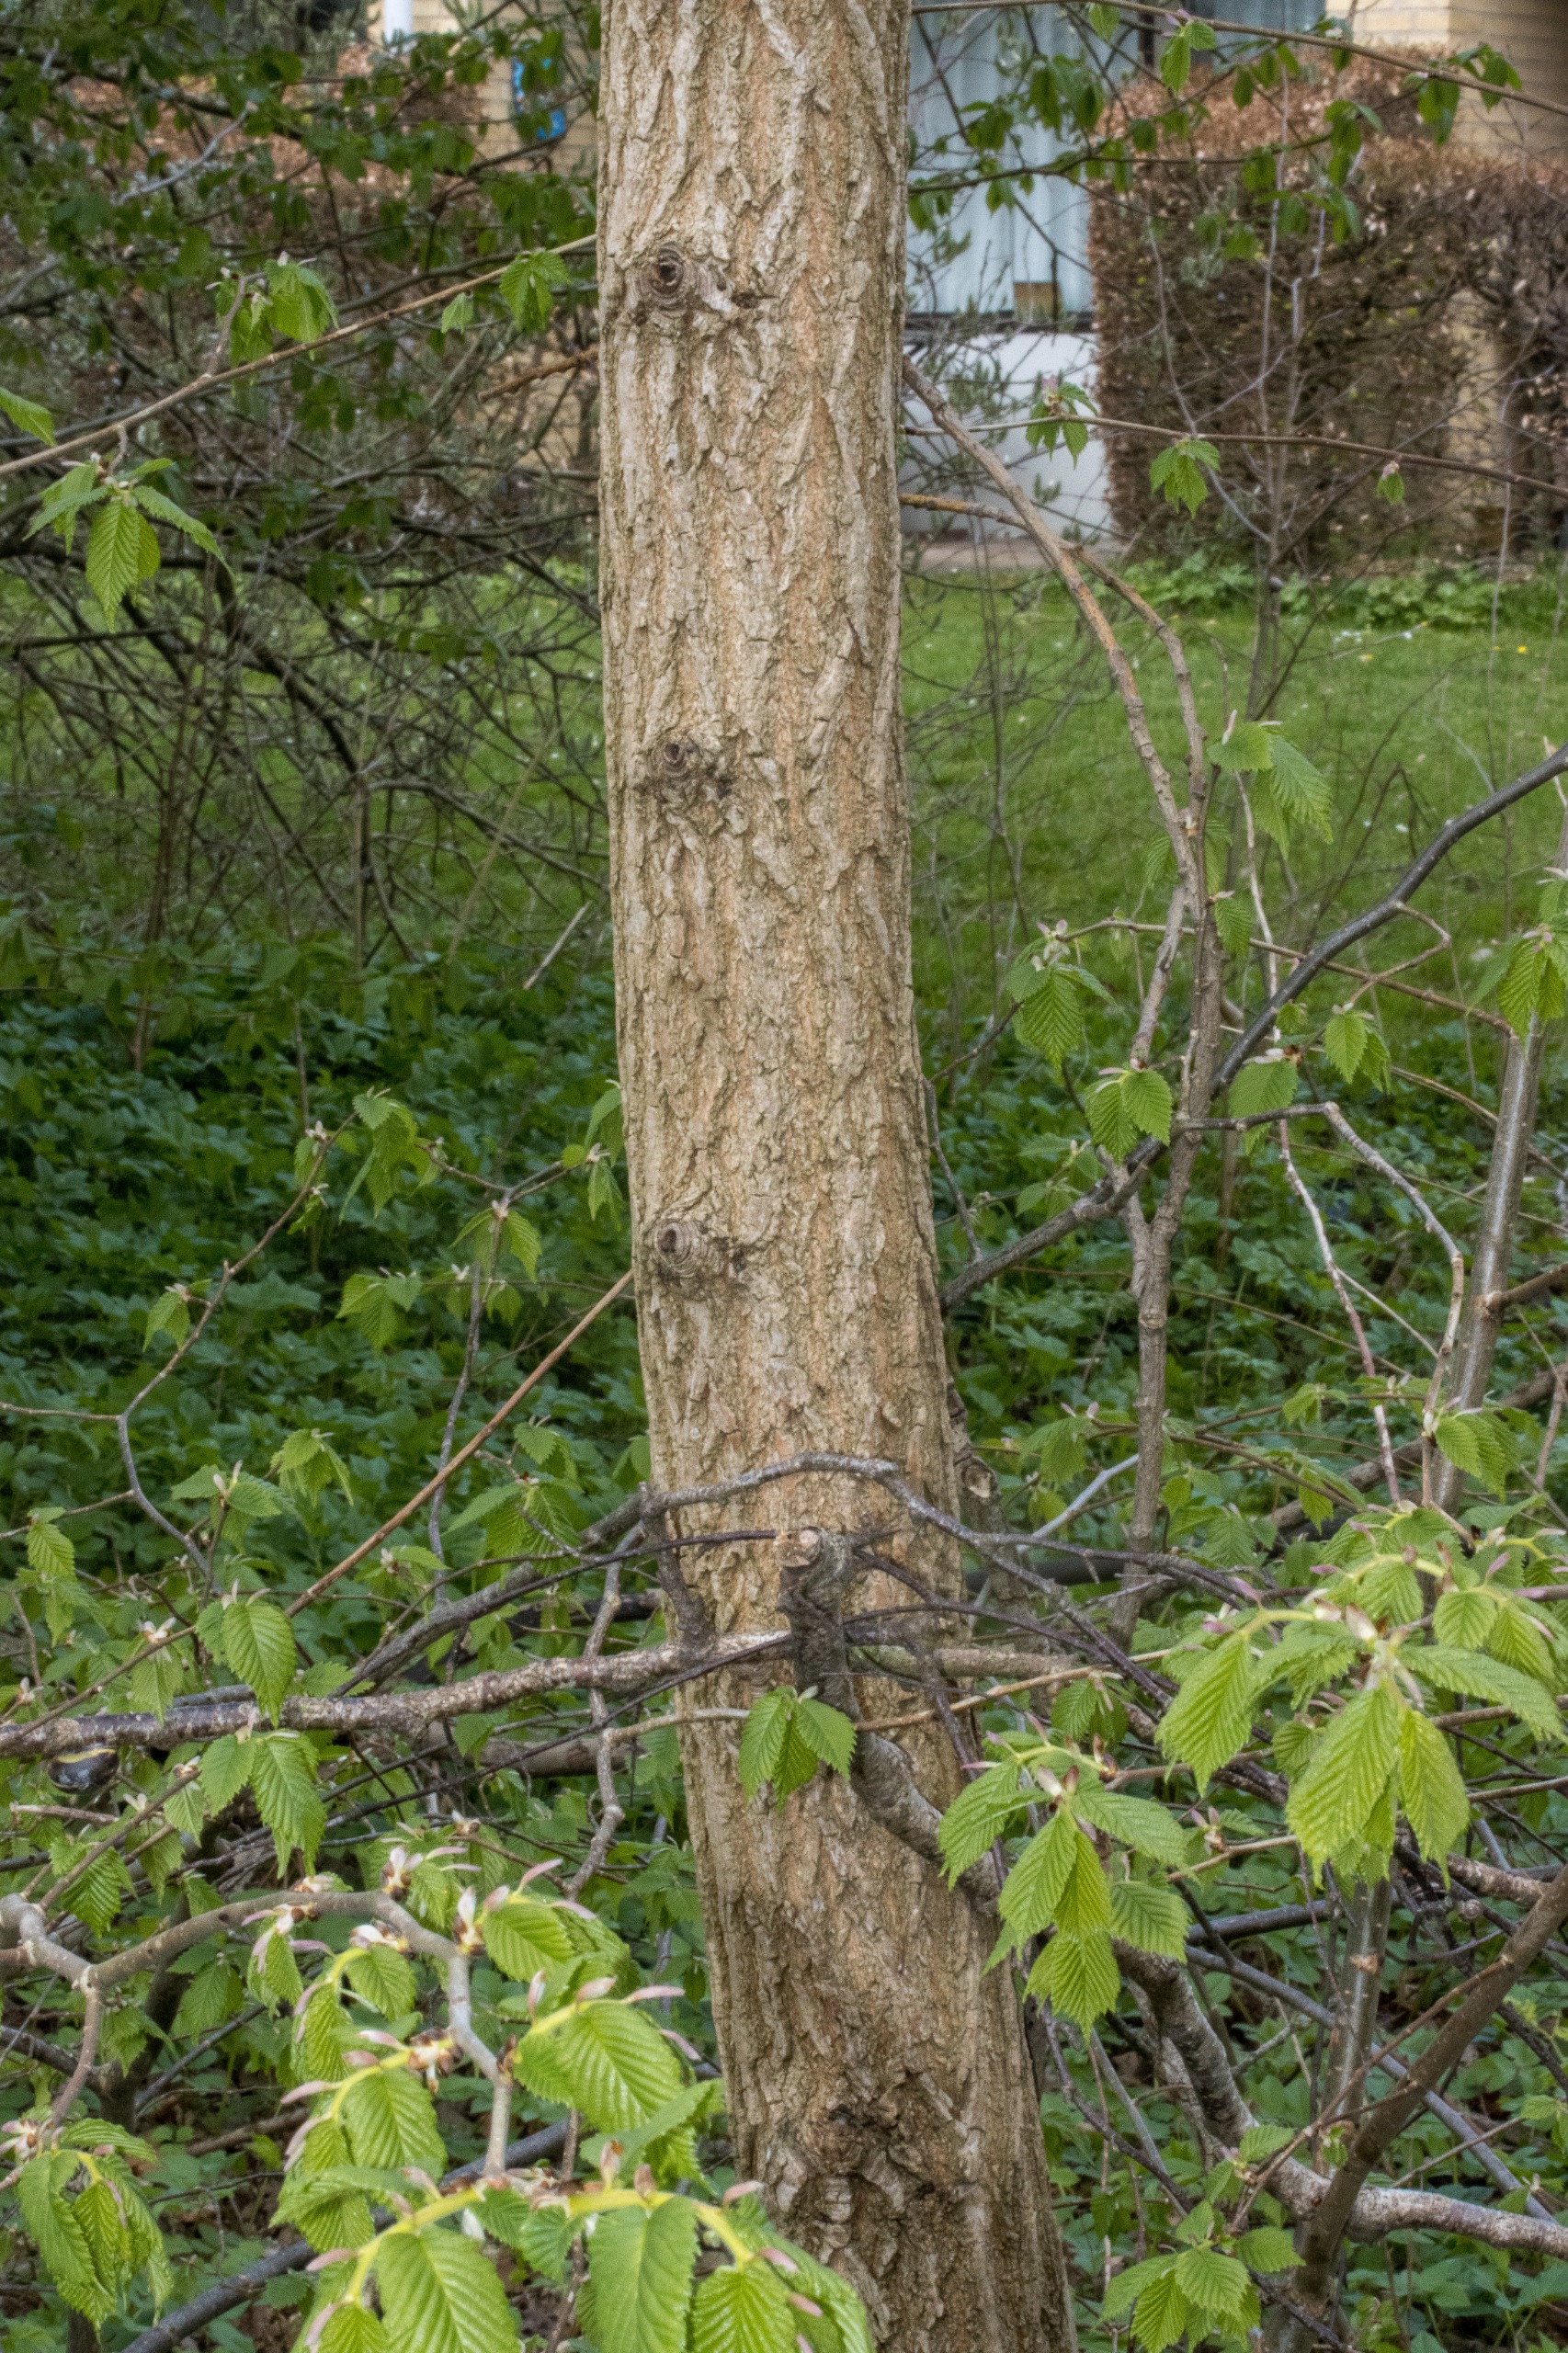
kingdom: Plantae
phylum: Tracheophyta
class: Magnoliopsida
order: Rosales
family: Ulmaceae
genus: Ulmus
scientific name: Ulmus glabra
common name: Skov-elm/storbladet elm
